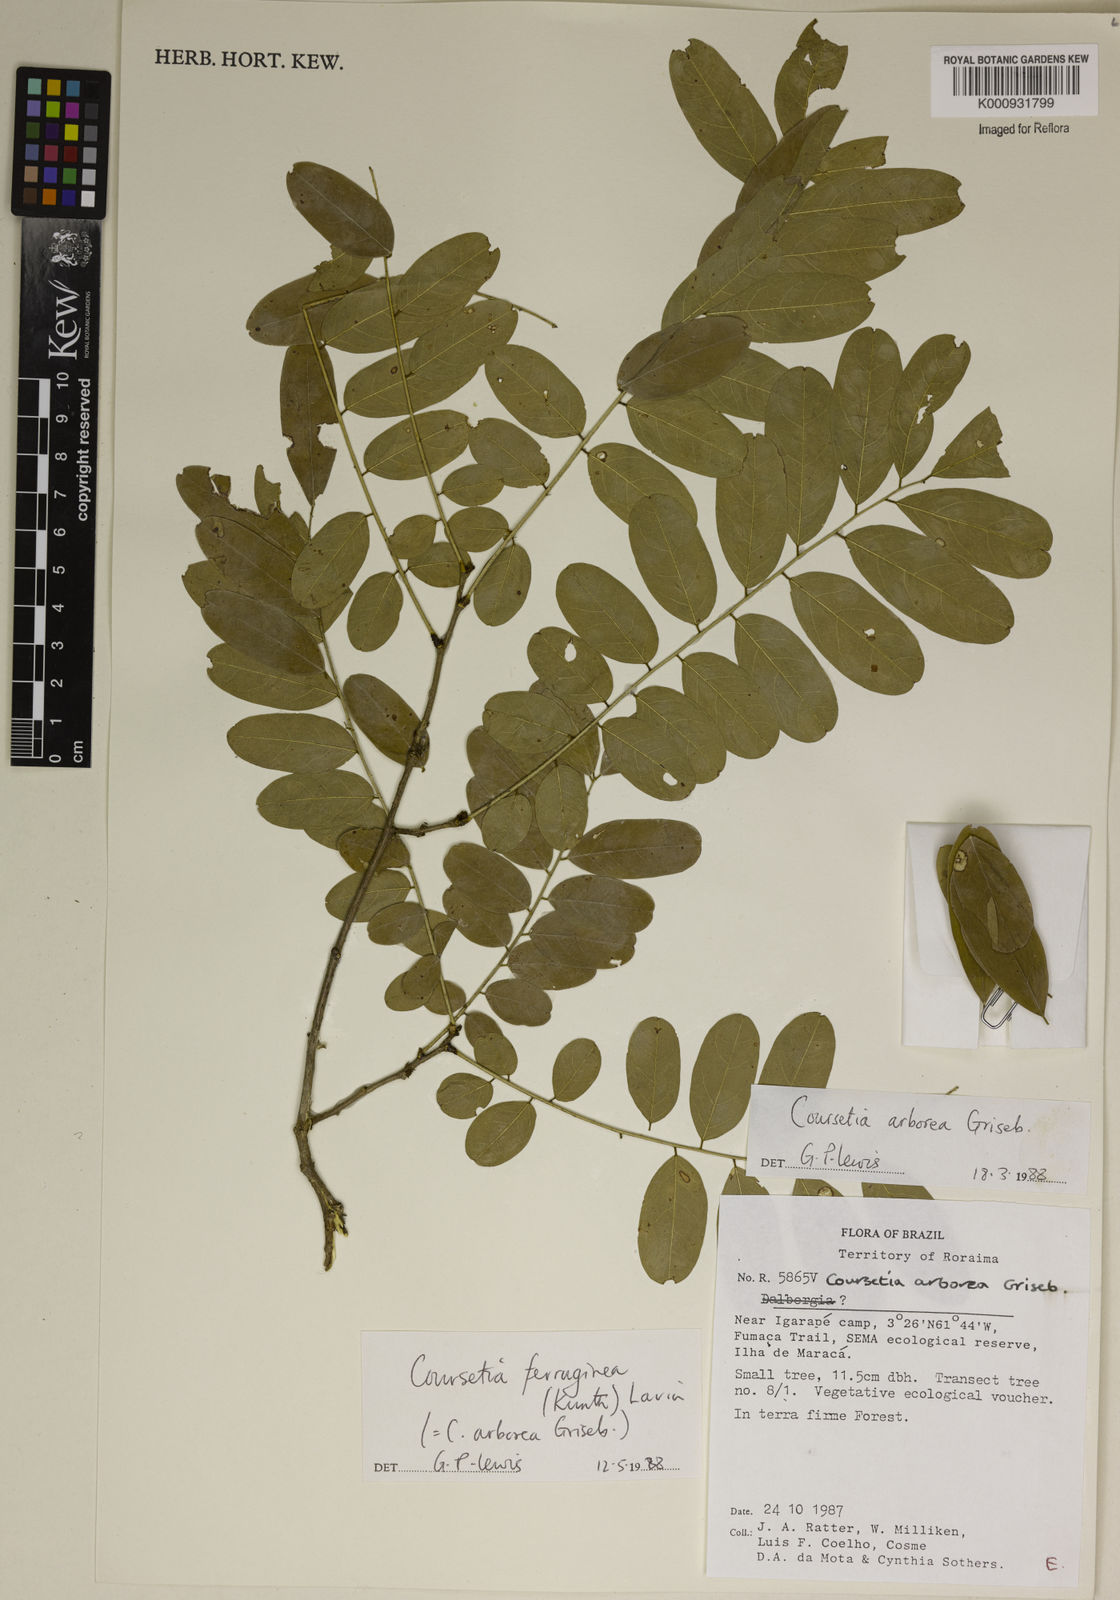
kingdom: Plantae
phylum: Tracheophyta
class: Magnoliopsida
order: Fabales
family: Fabaceae
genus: Coursetia
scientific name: Coursetia ferruginea
